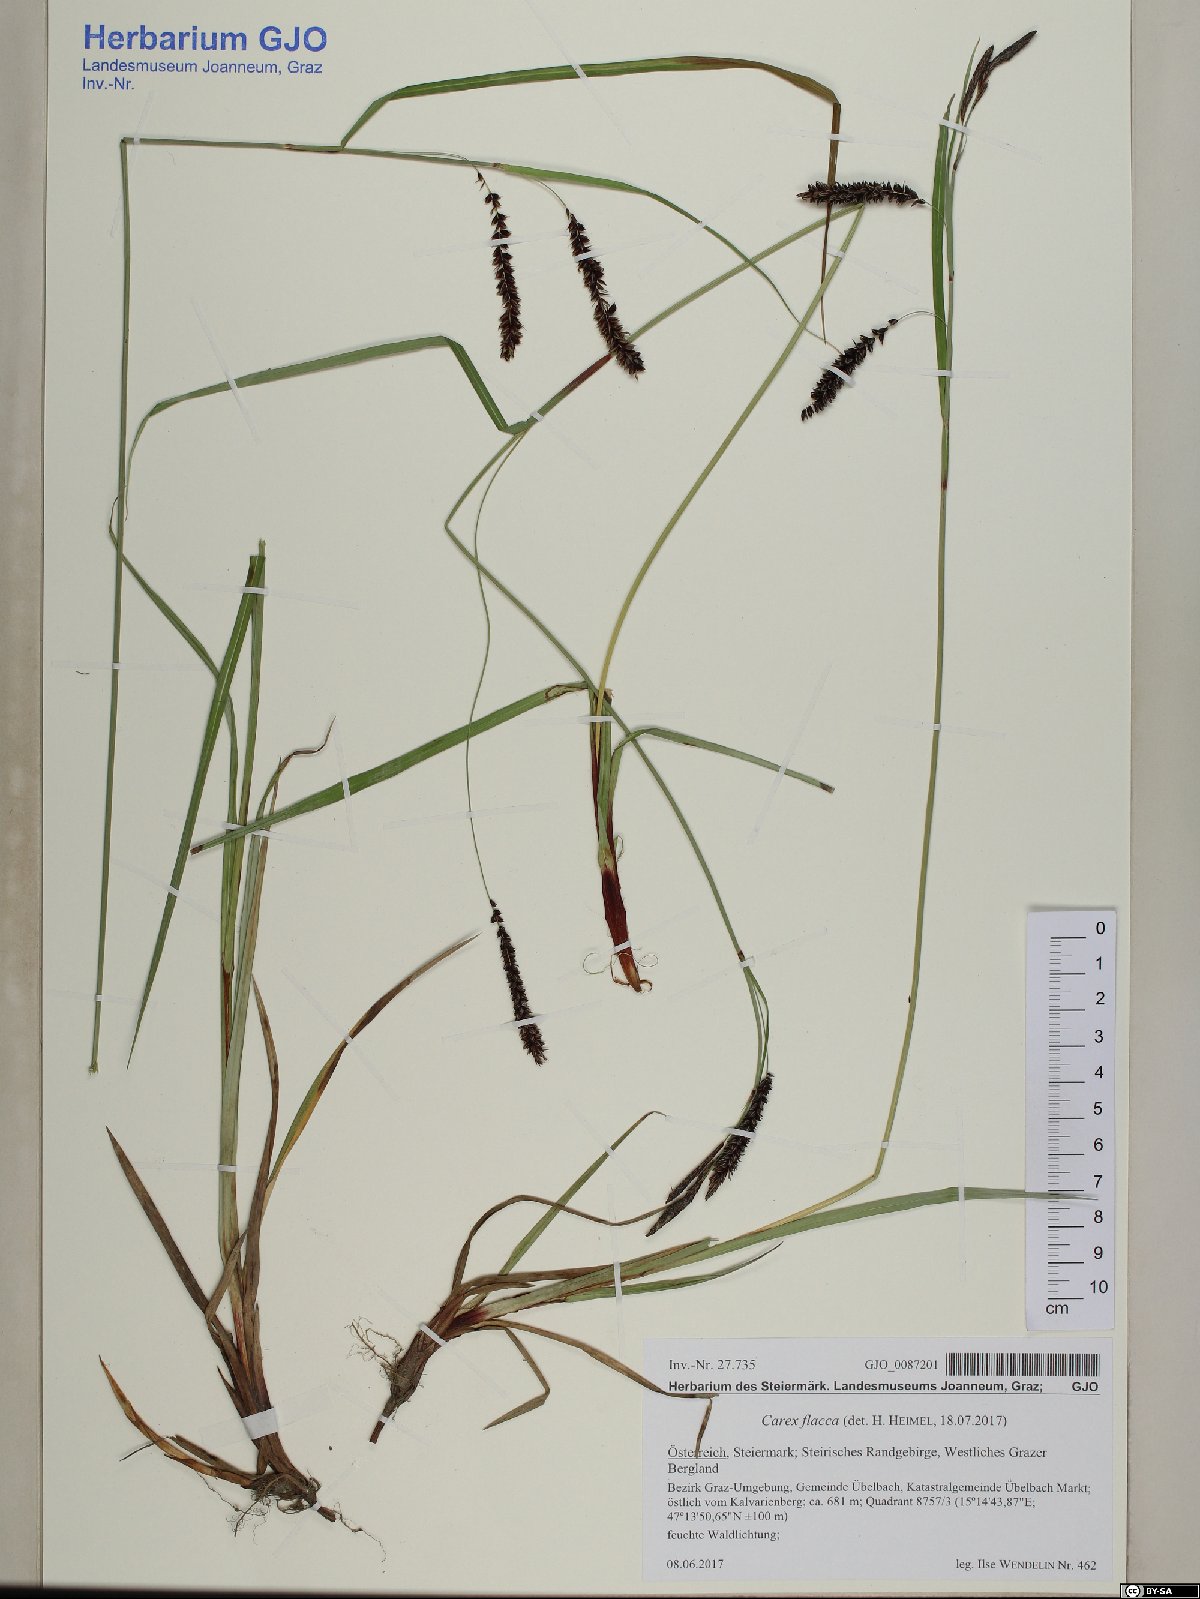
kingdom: Plantae
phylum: Tracheophyta
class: Liliopsida
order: Poales
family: Cyperaceae
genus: Carex
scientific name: Carex flacca
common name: Glaucous sedge
